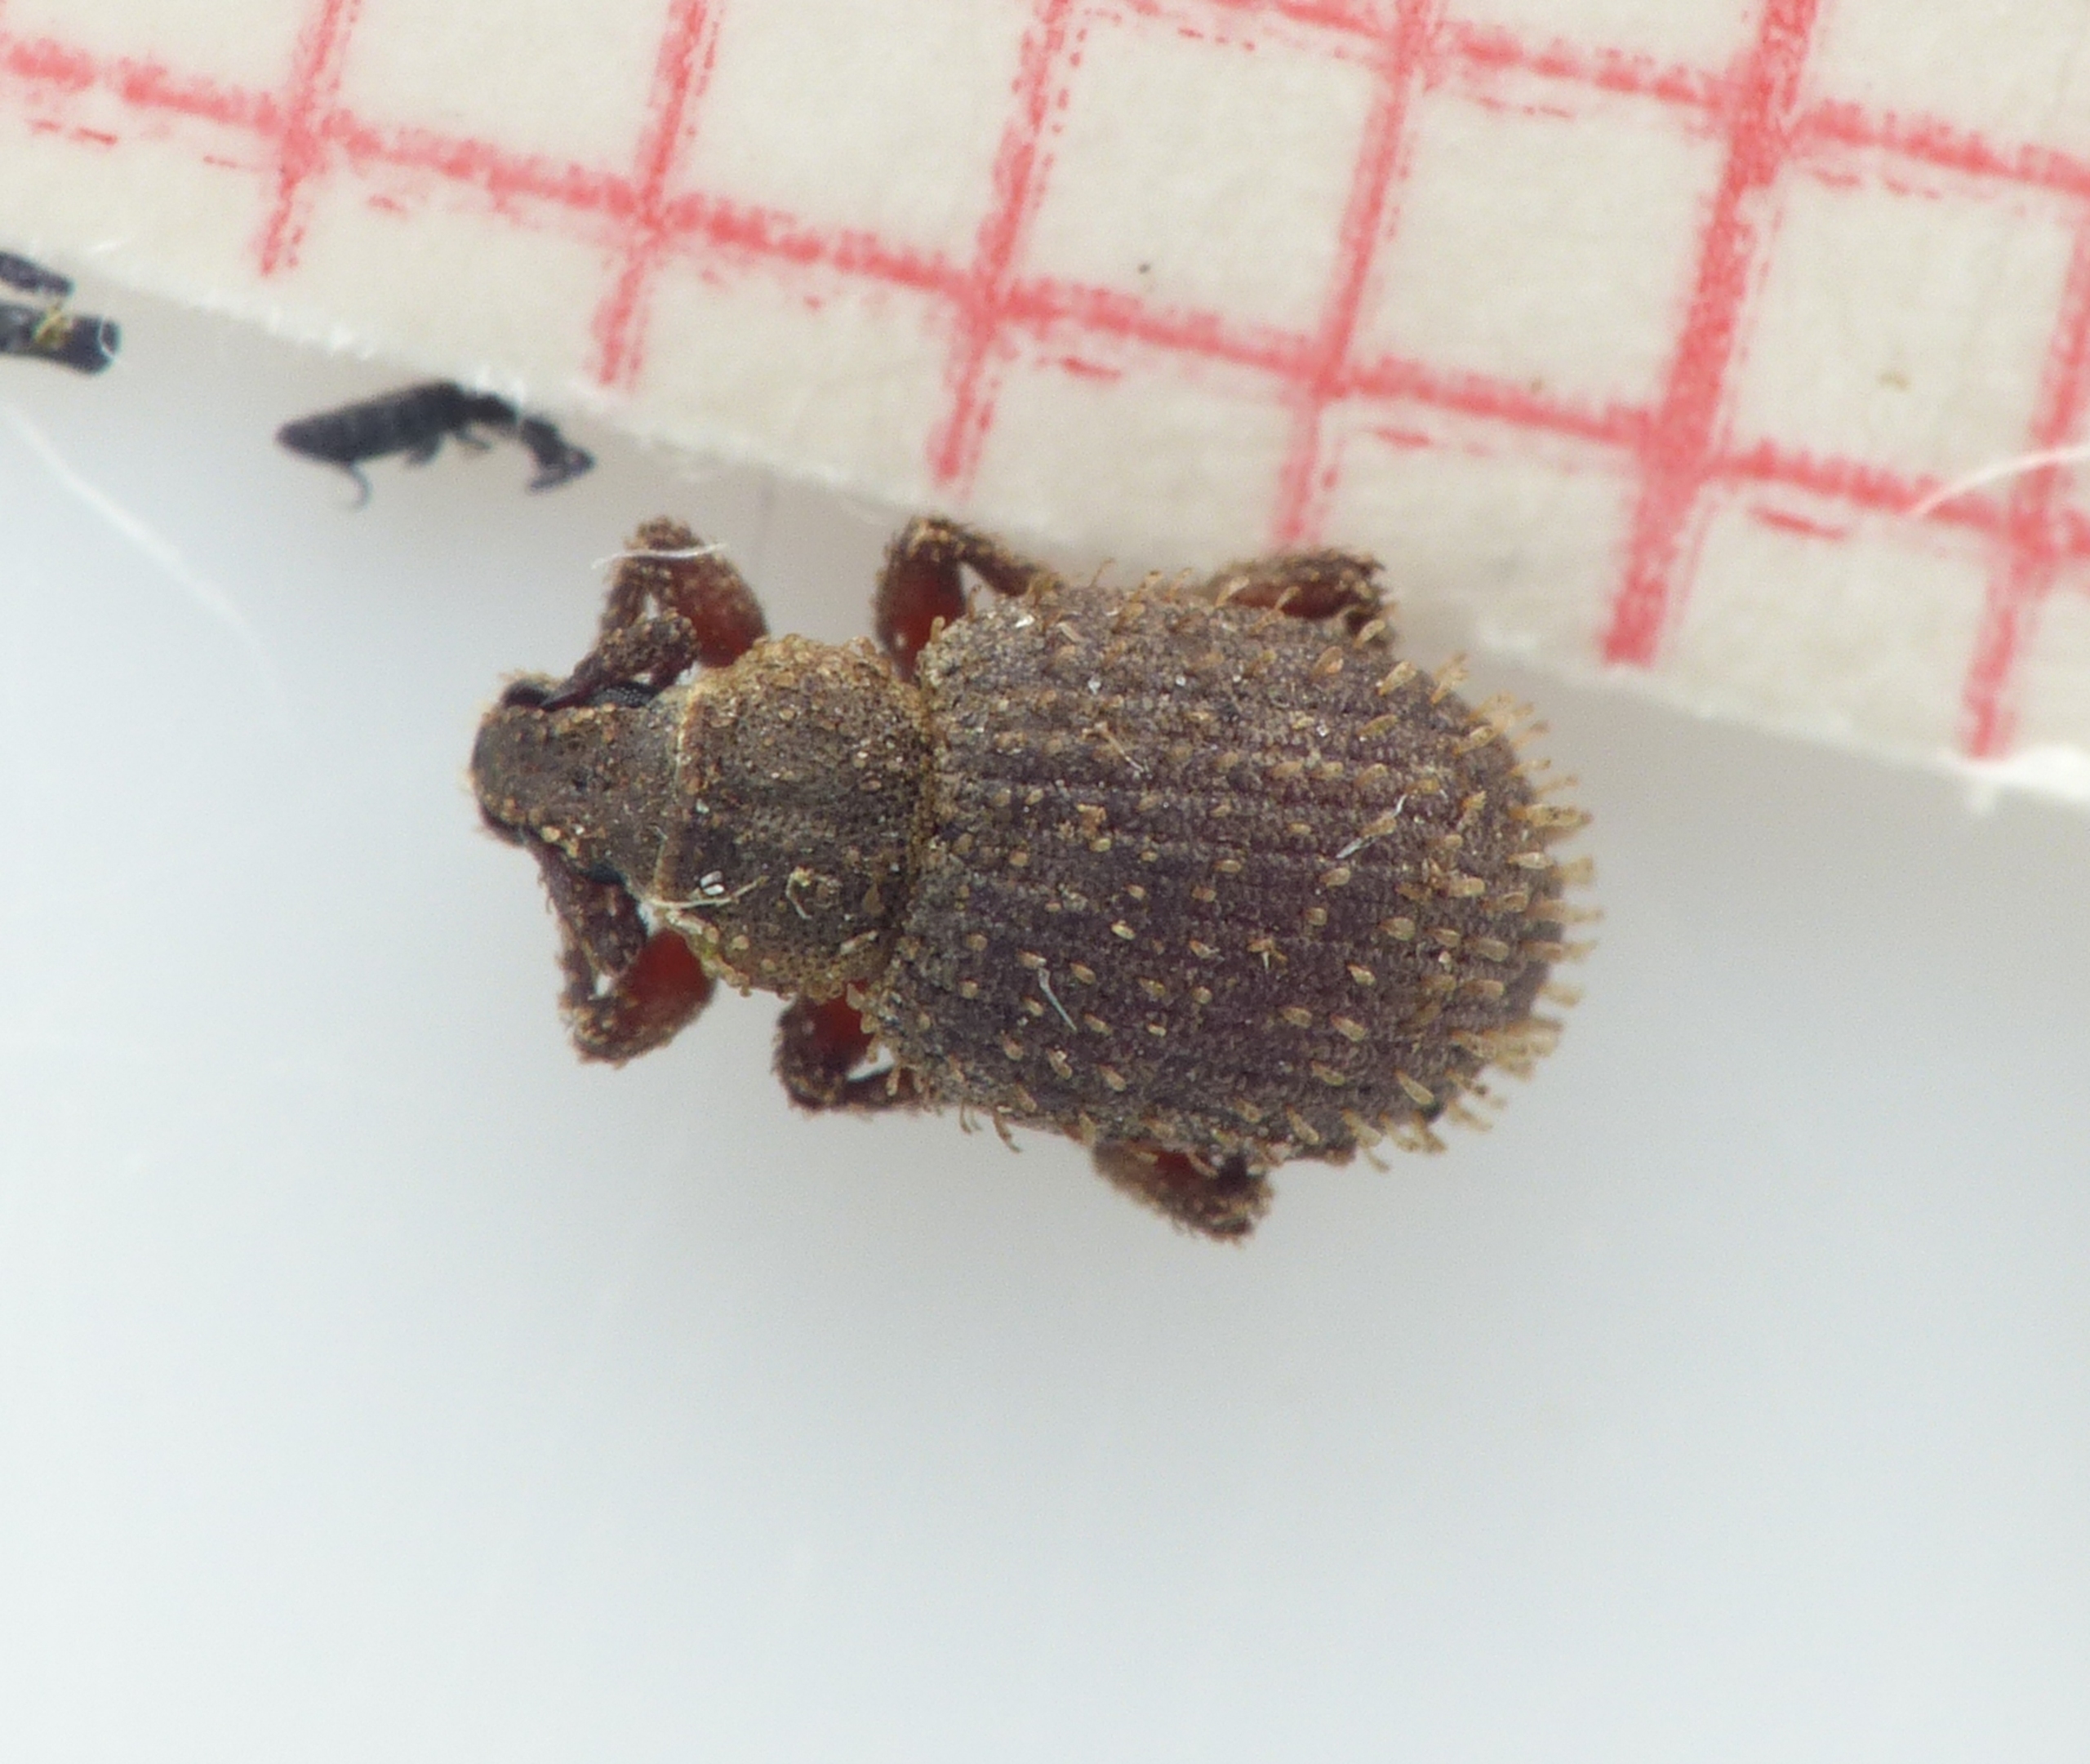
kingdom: Animalia
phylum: Arthropoda
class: Insecta
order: Coleoptera
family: Curculionidae
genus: Cathormiocerus
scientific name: Cathormiocerus aristatus
